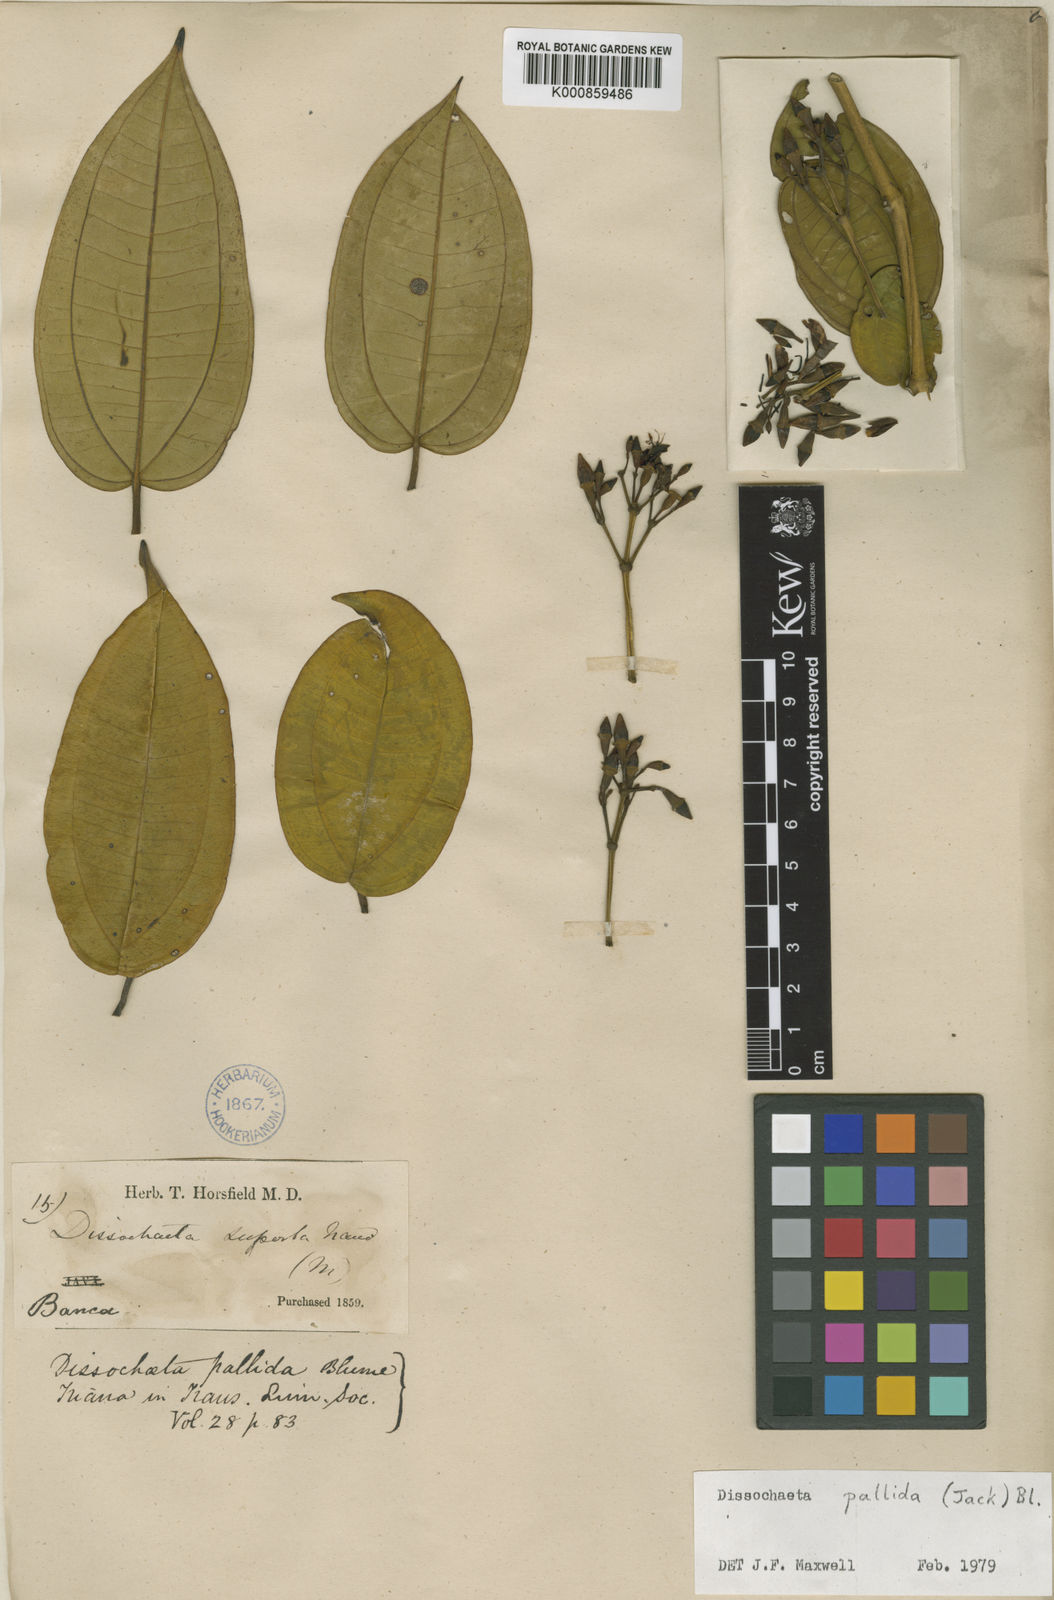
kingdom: Plantae
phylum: Tracheophyta
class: Magnoliopsida
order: Myrtales
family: Melastomataceae
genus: Dissochaeta
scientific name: Dissochaeta pallida
